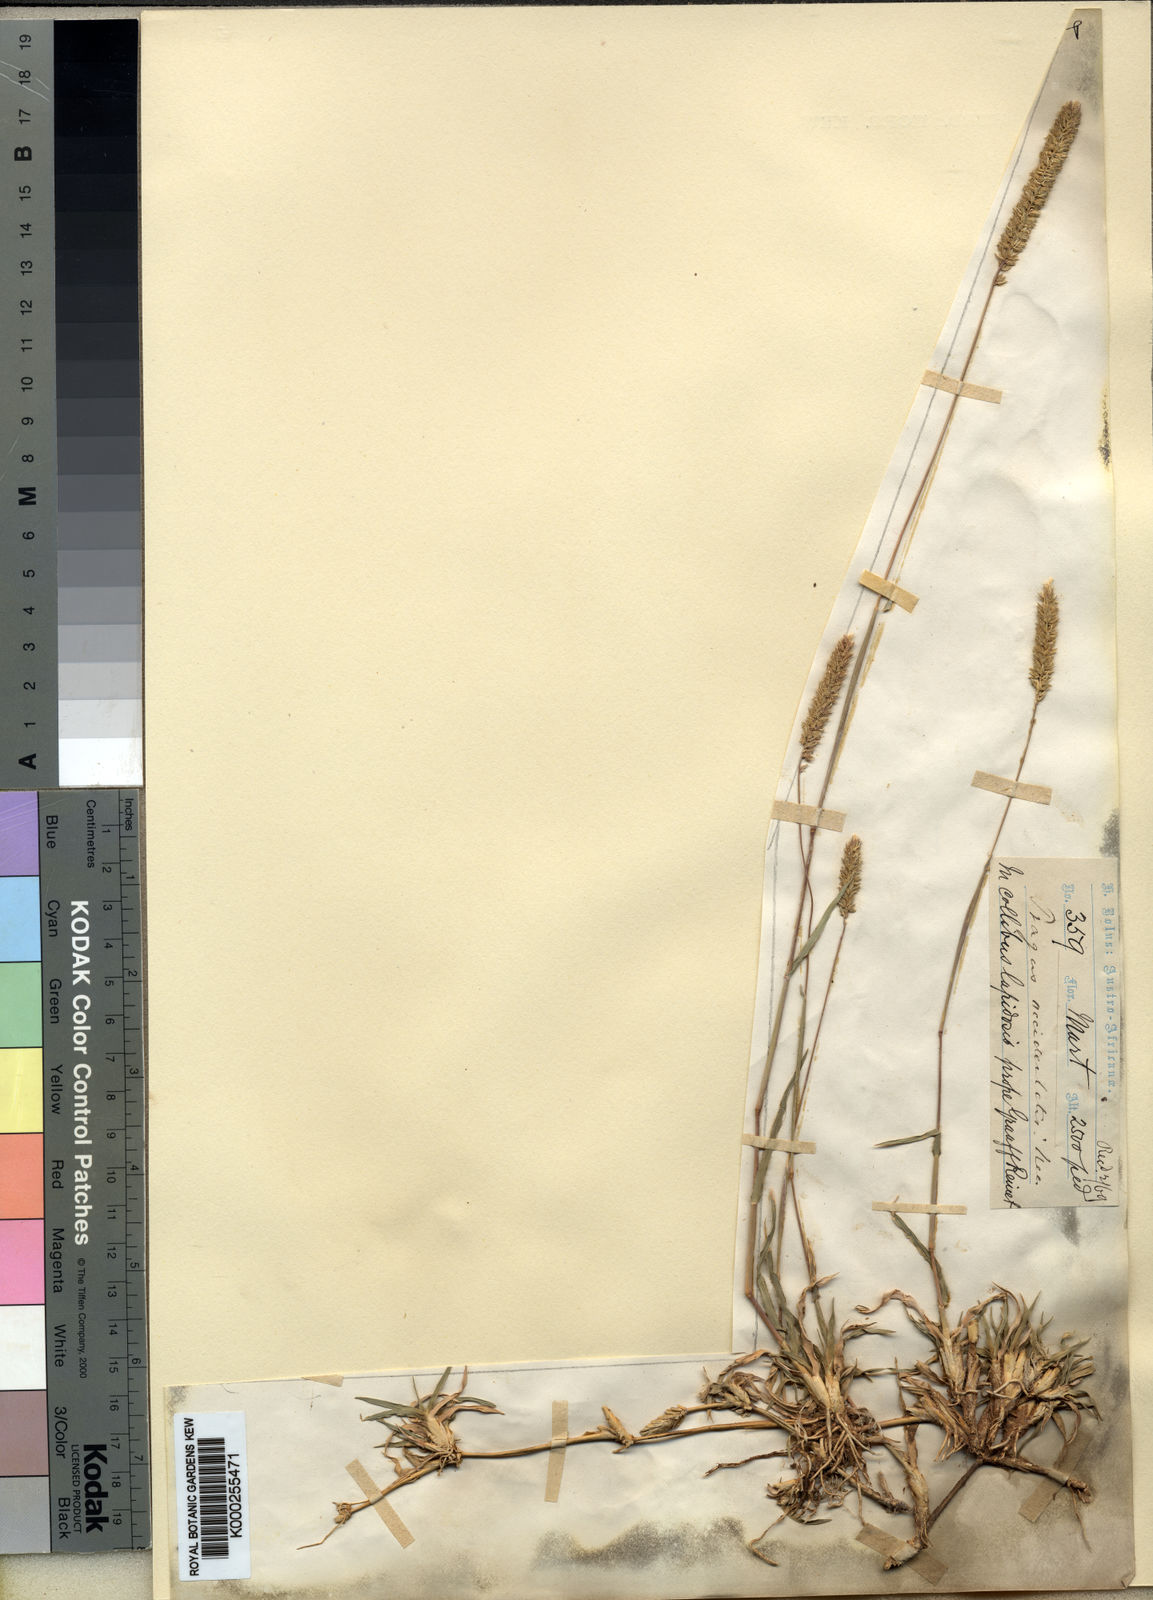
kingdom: Plantae
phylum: Tracheophyta
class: Liliopsida
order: Poales
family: Poaceae
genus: Tragus
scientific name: Tragus koelerioides
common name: Creeping carrot-seed grass
